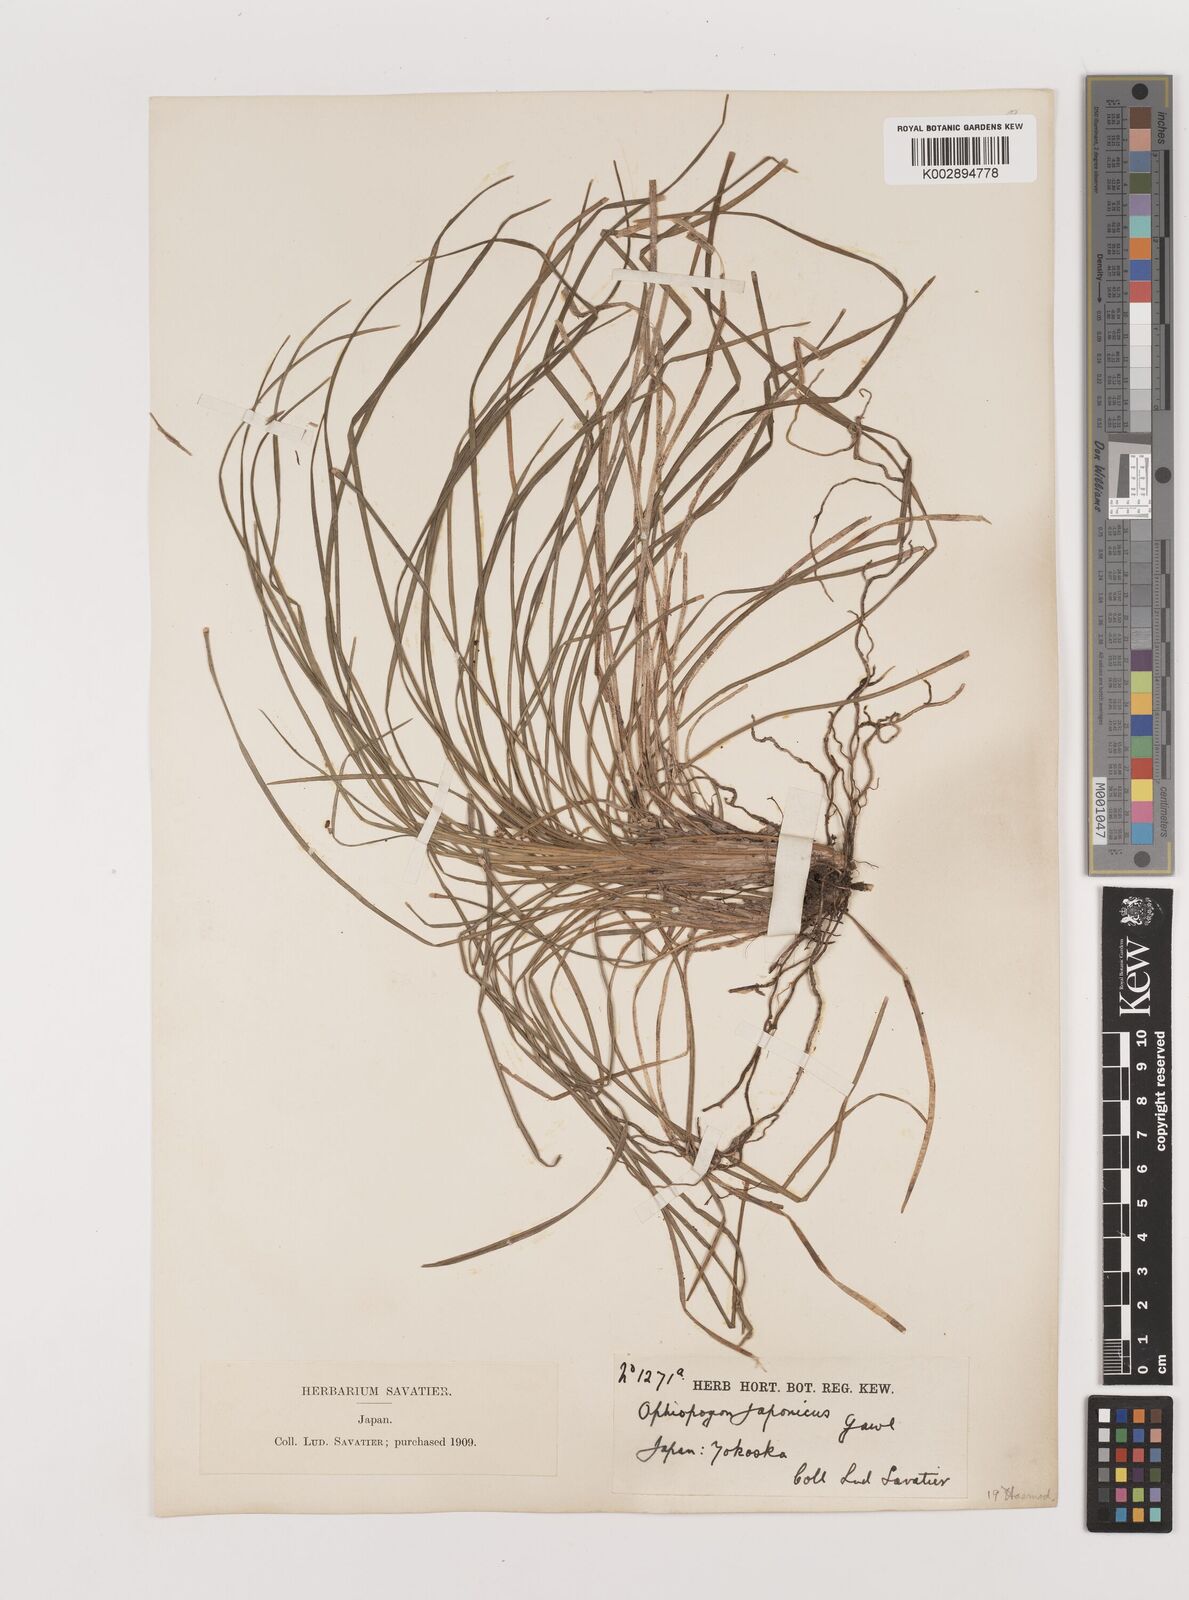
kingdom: Plantae
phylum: Tracheophyta
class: Liliopsida
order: Asparagales
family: Asparagaceae
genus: Ophiopogon
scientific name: Ophiopogon japonicus
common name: Dwarf lilyturf
